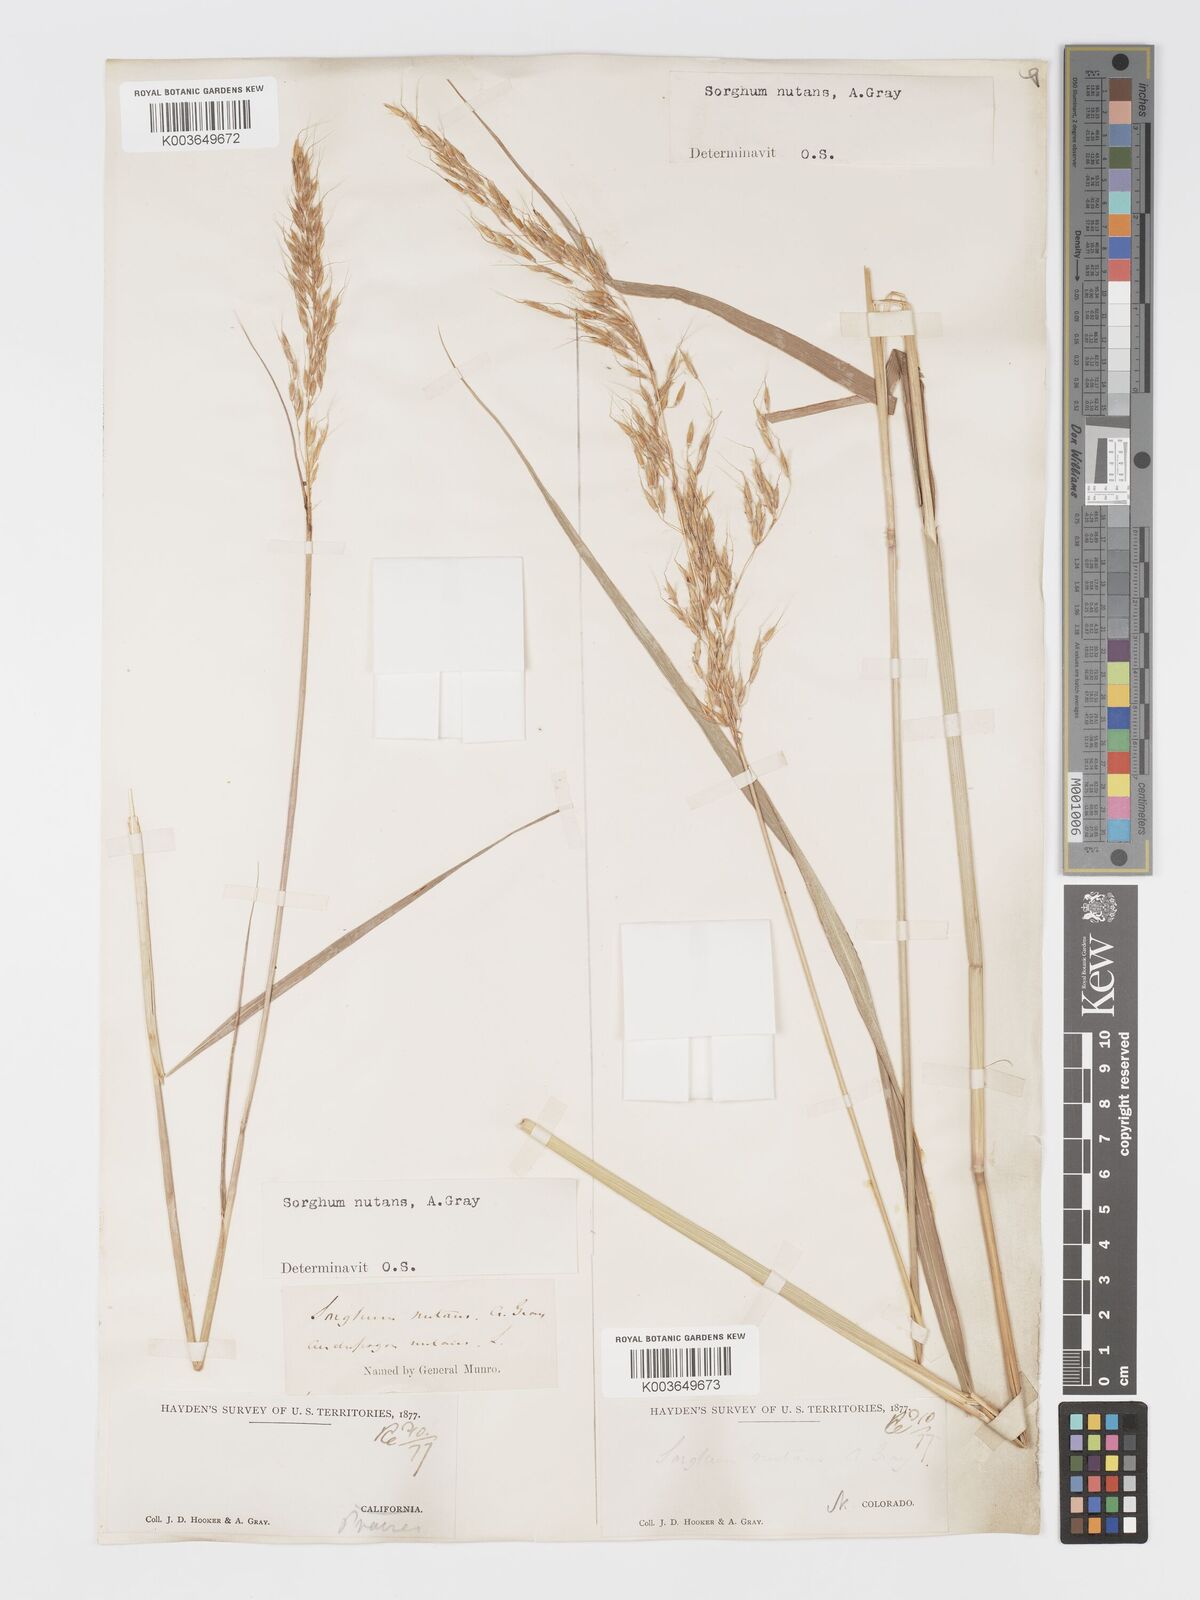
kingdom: Plantae
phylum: Tracheophyta
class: Liliopsida
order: Poales
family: Poaceae
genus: Sorghastrum
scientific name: Sorghastrum nutans
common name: Indian grass
